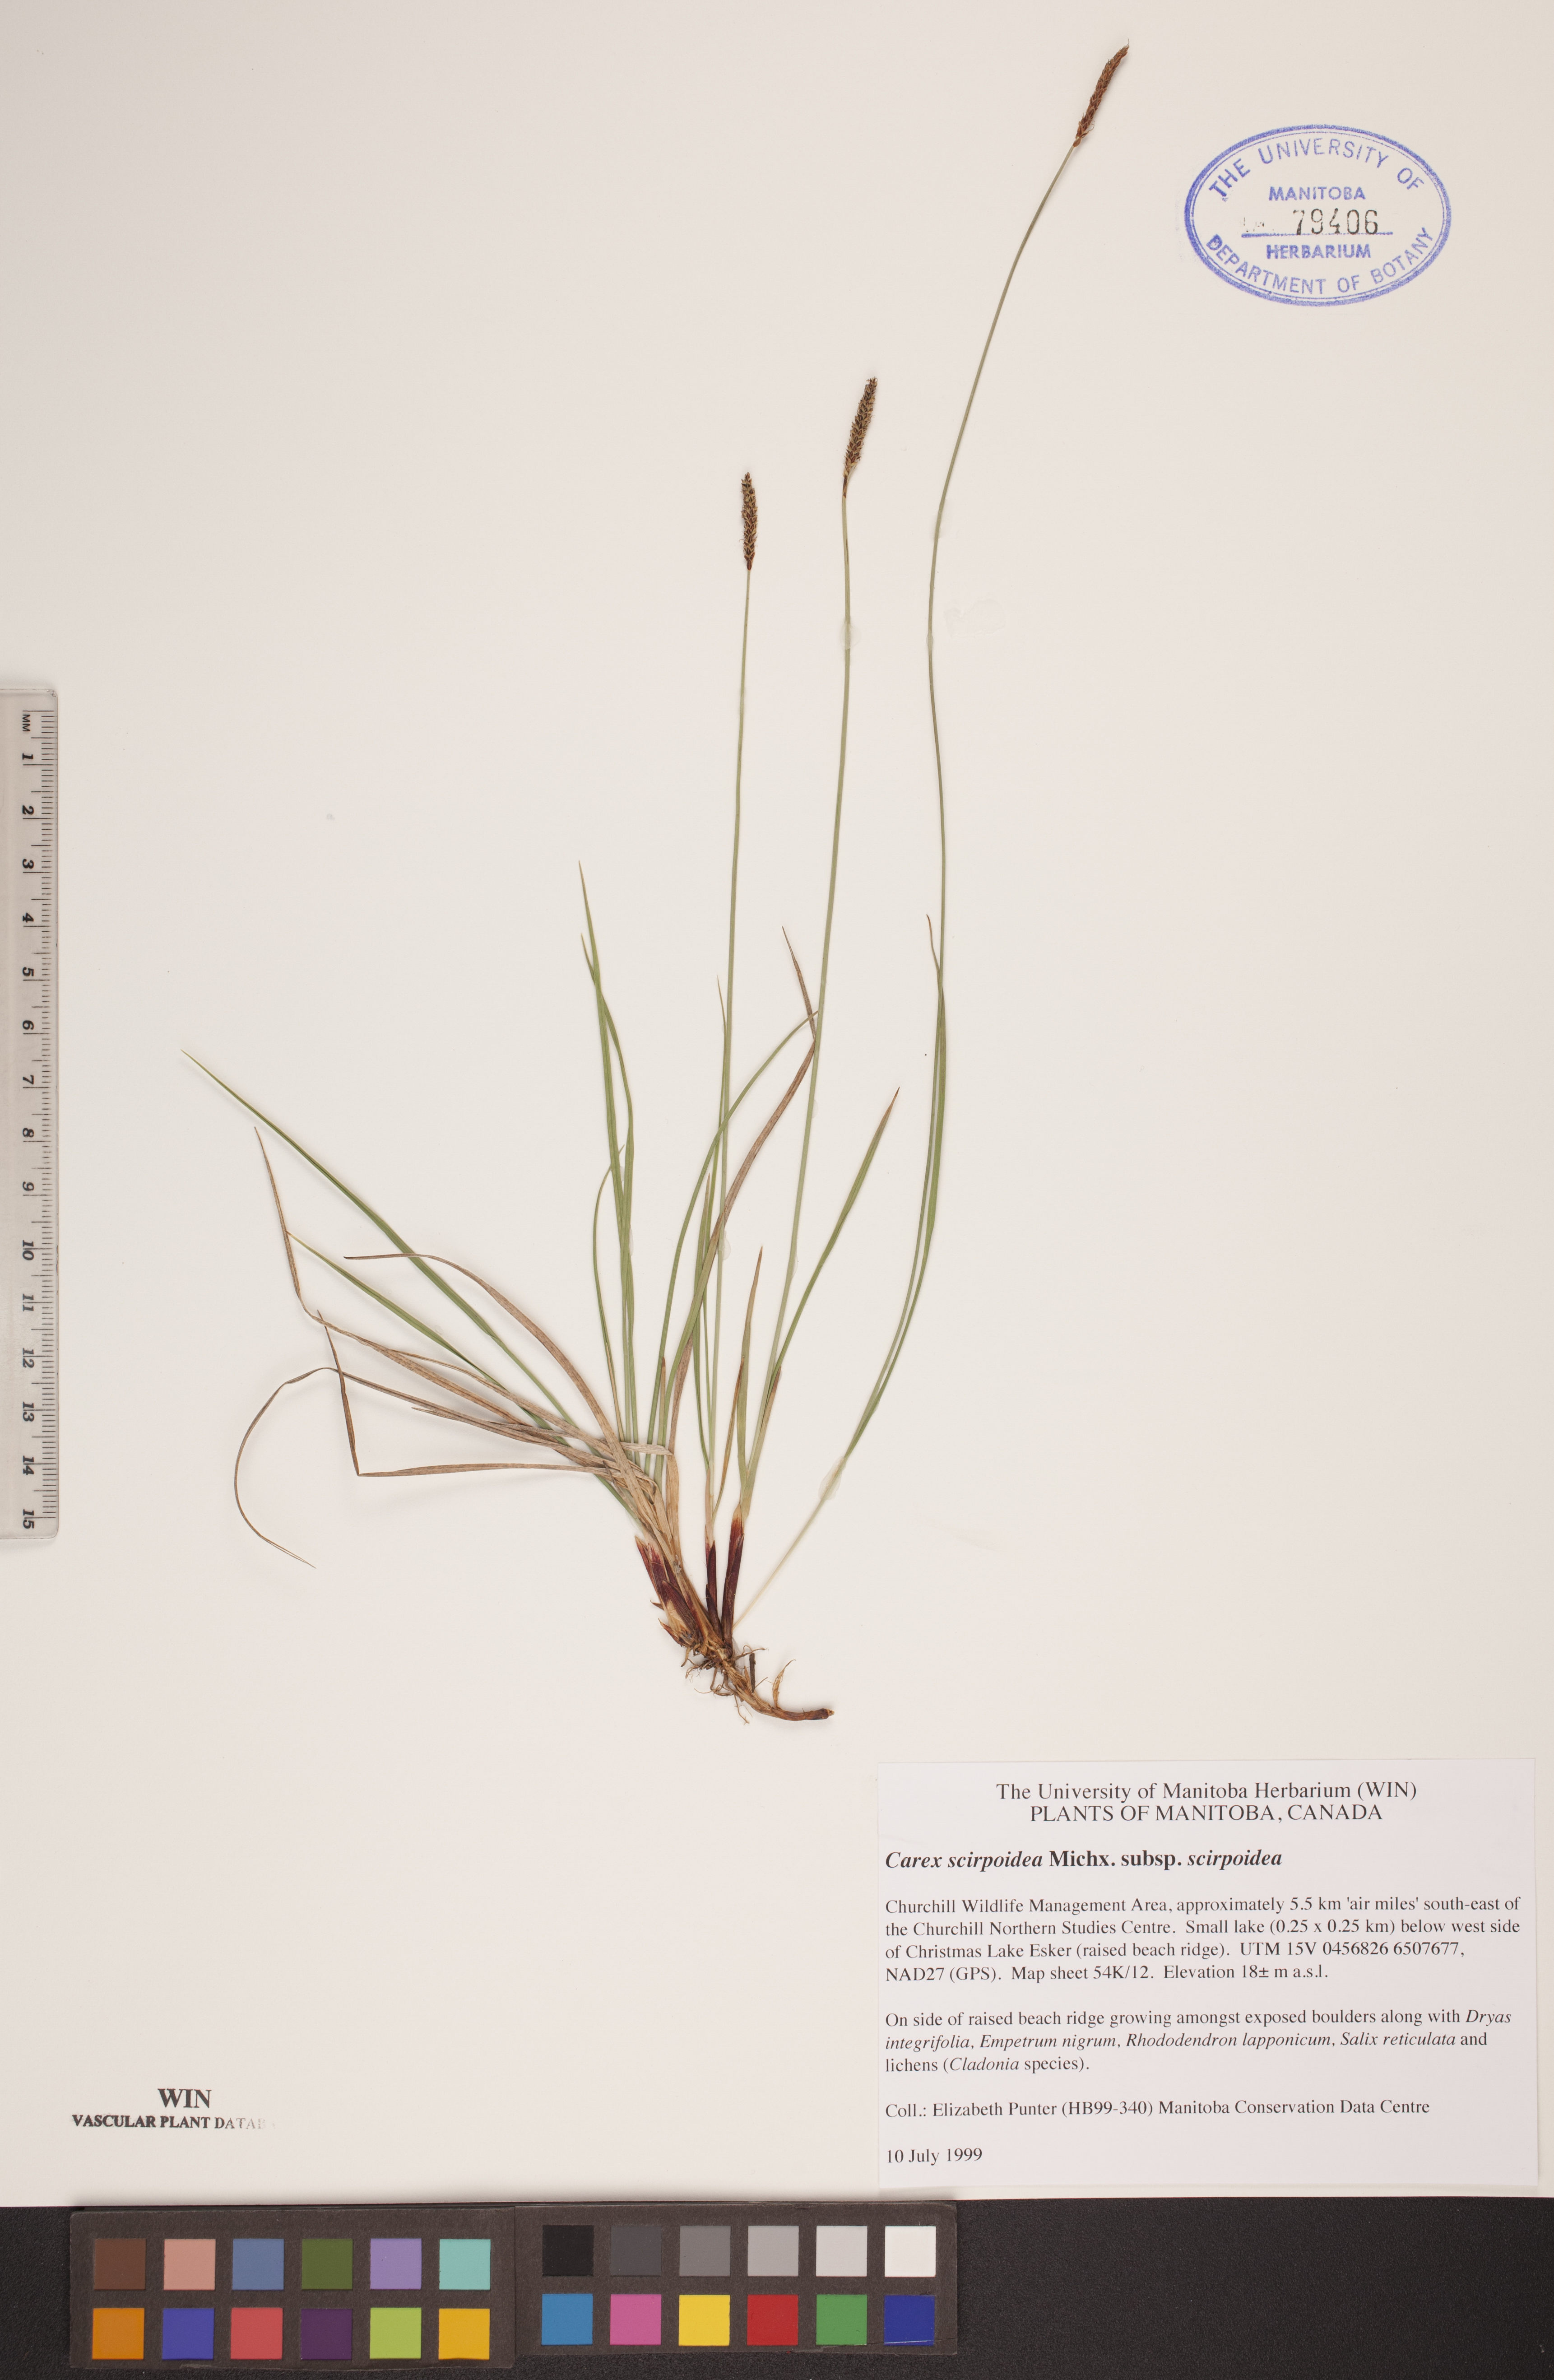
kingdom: Plantae
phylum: Tracheophyta
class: Liliopsida
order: Poales
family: Cyperaceae
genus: Carex
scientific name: Carex scirpoidea
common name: Canada single-spike sedge
